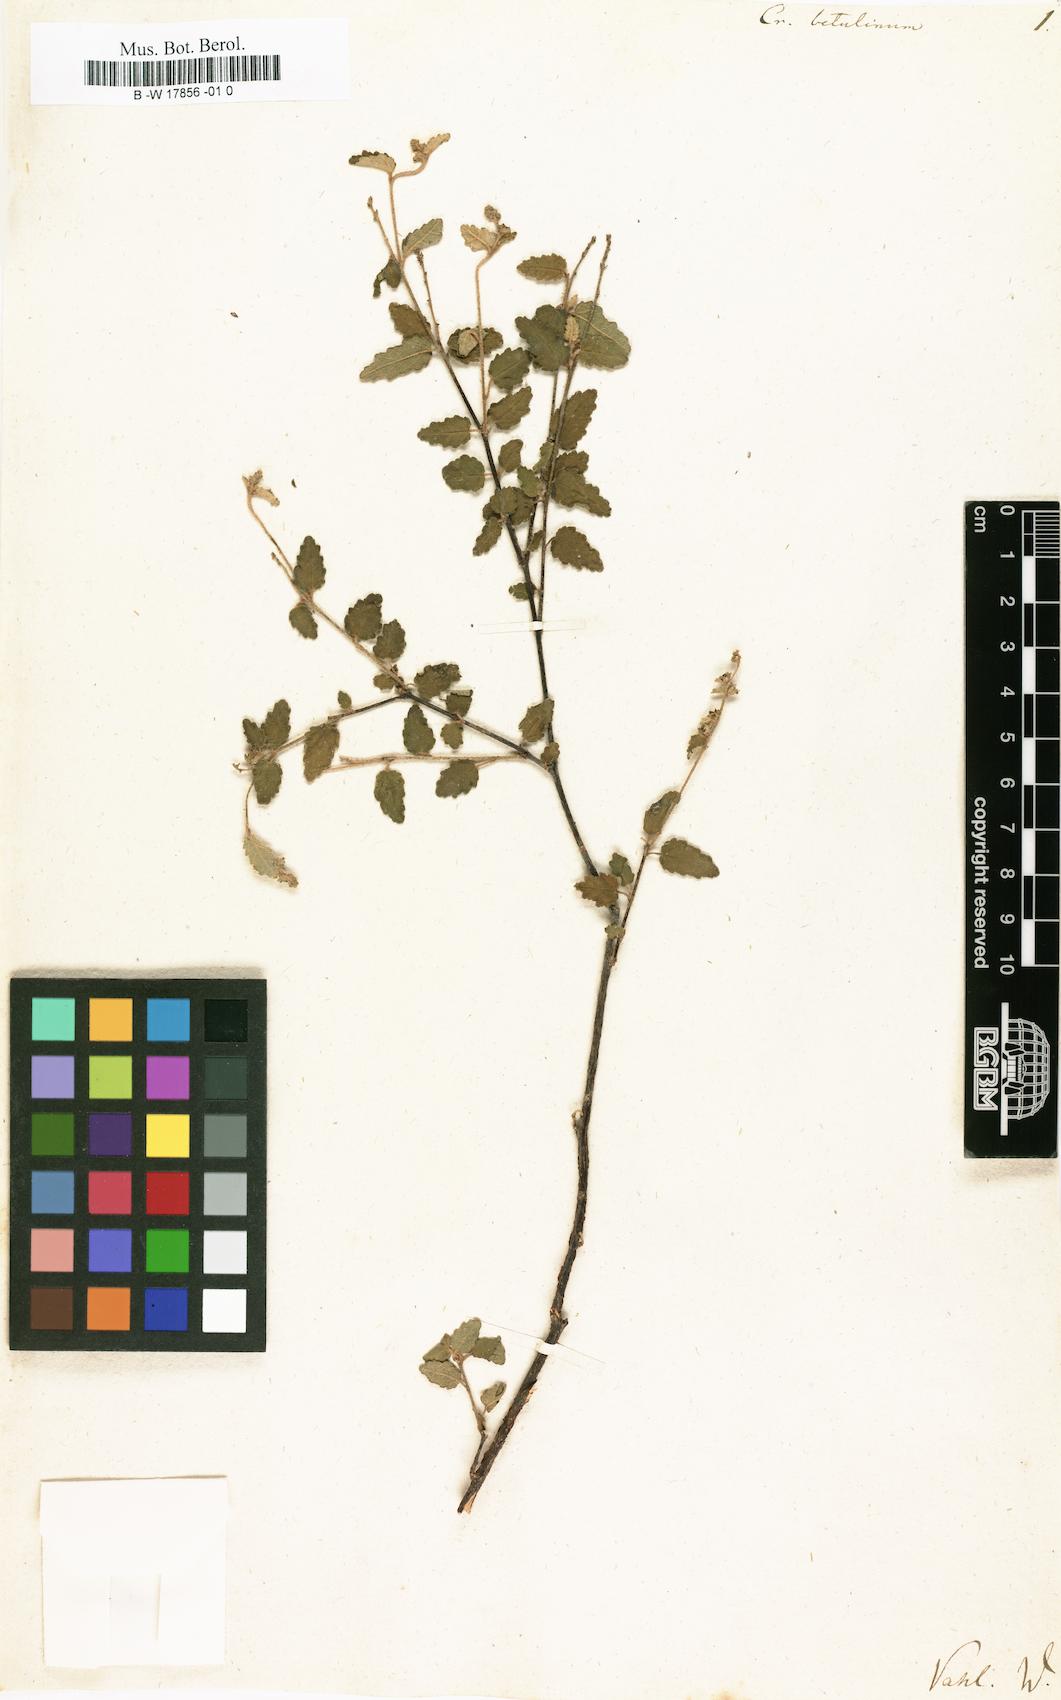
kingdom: Plantae
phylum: Tracheophyta
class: Magnoliopsida
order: Malpighiales
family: Euphorbiaceae
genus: Croton
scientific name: Croton betulinus
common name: Black sage
